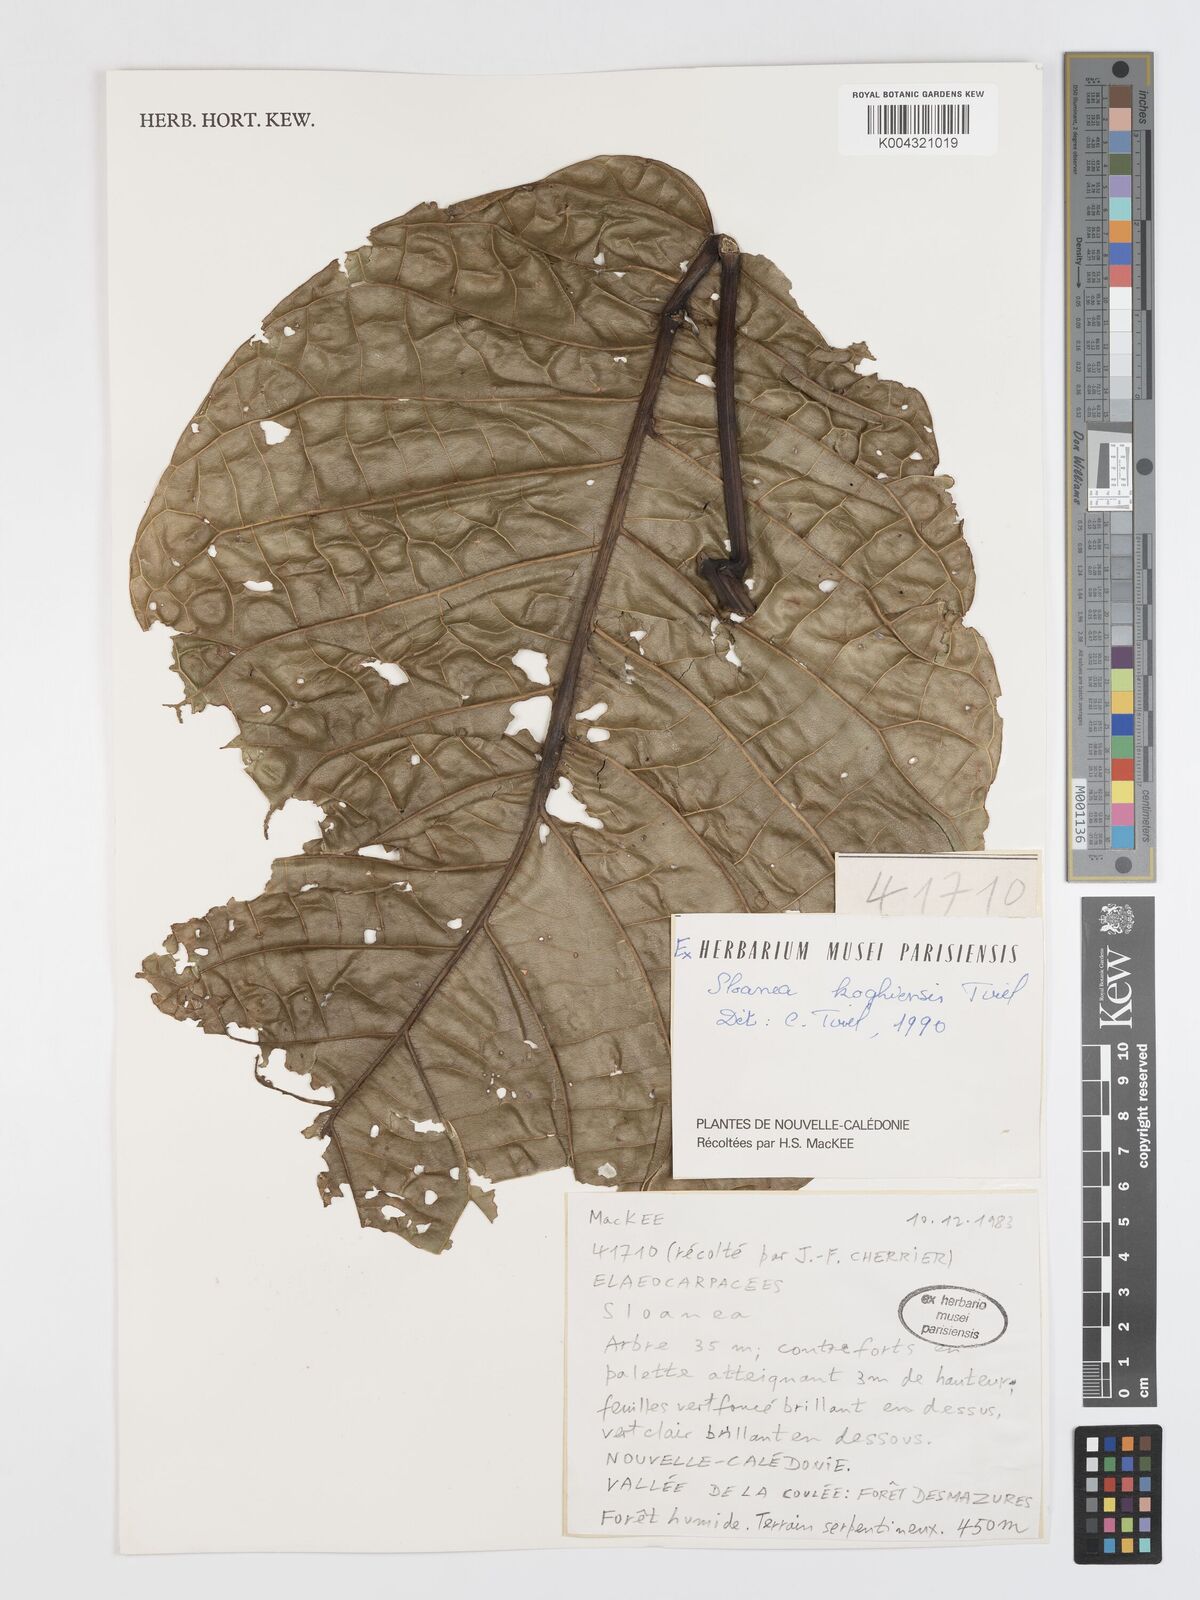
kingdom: Plantae
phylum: Tracheophyta
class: Magnoliopsida
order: Oxalidales
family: Elaeocarpaceae
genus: Sloanea
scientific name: Sloanea koghiensis
